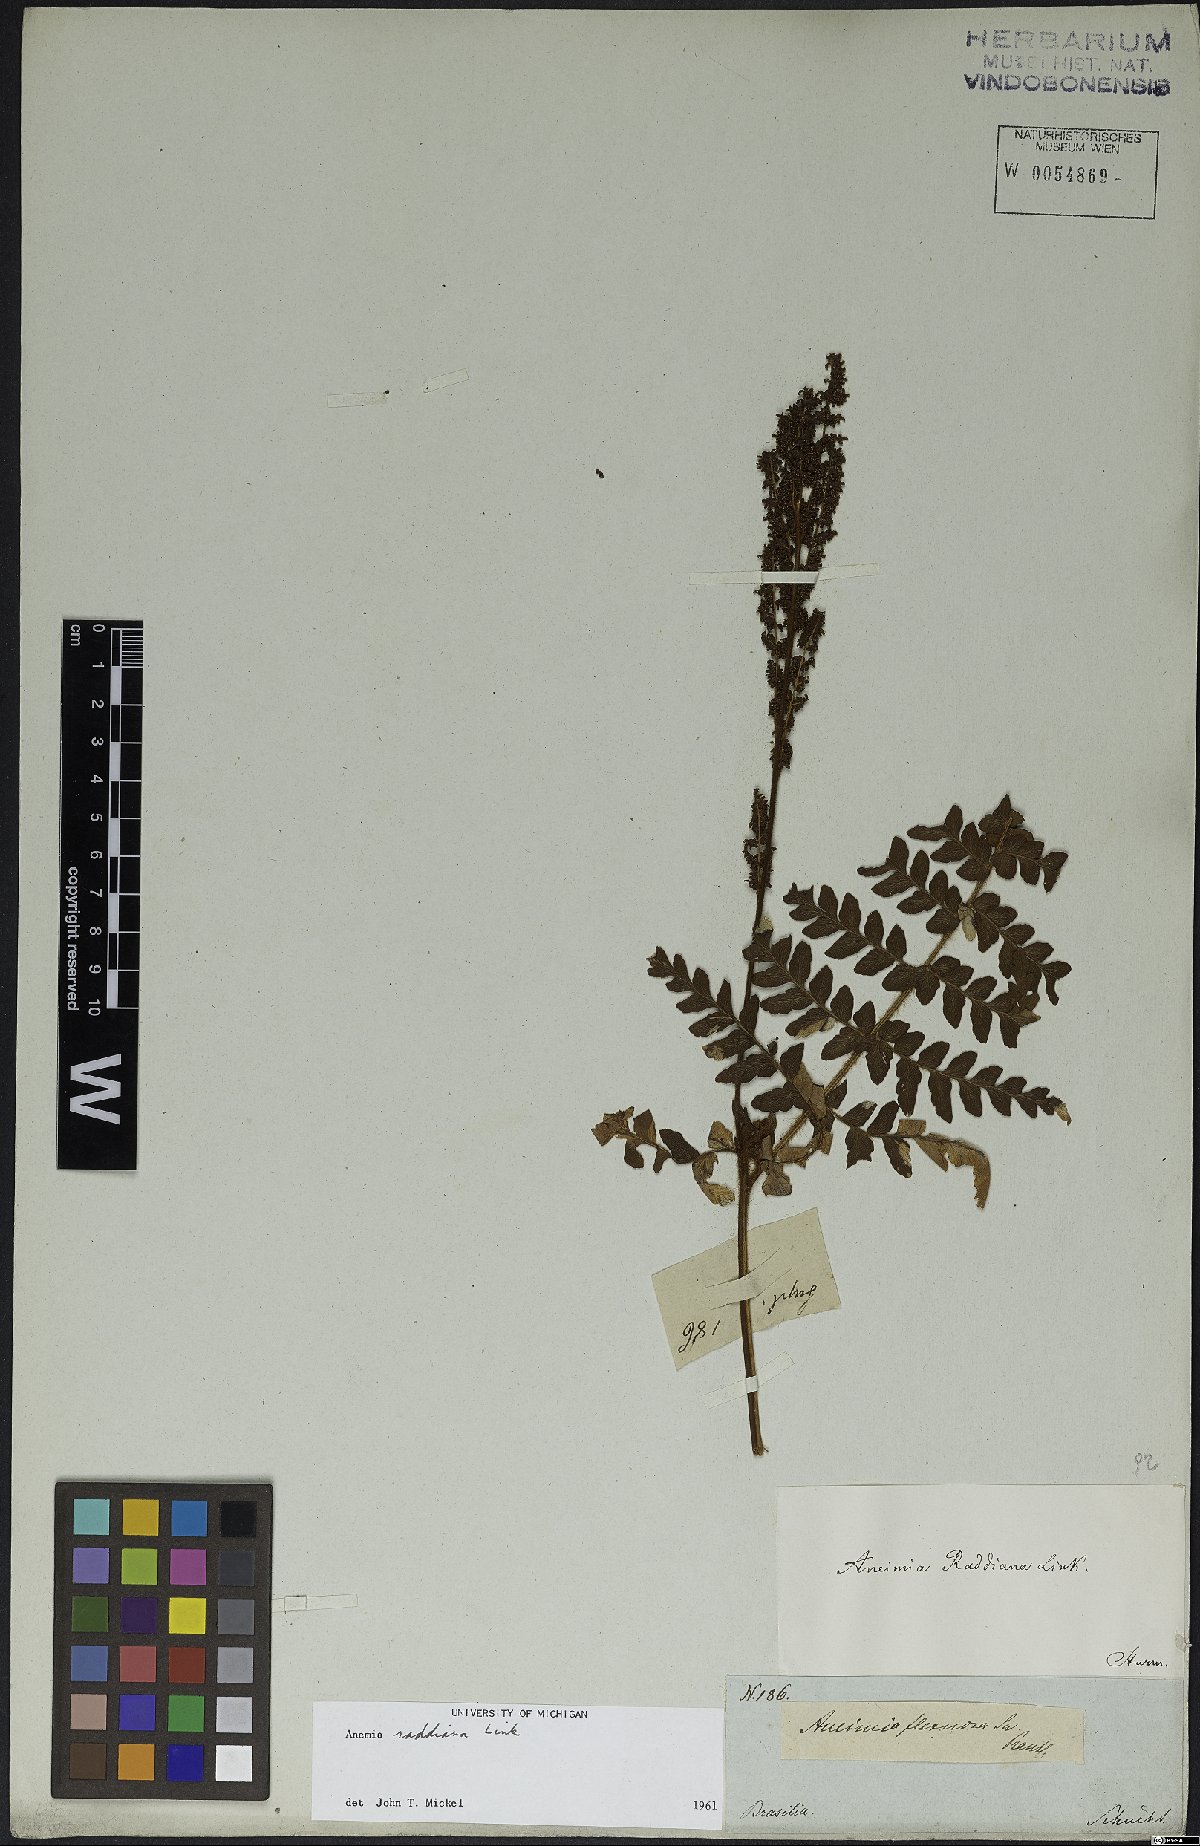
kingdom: Plantae
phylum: Tracheophyta
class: Polypodiopsida
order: Schizaeales
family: Anemiaceae
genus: Anemia
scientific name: Anemia raddiana
